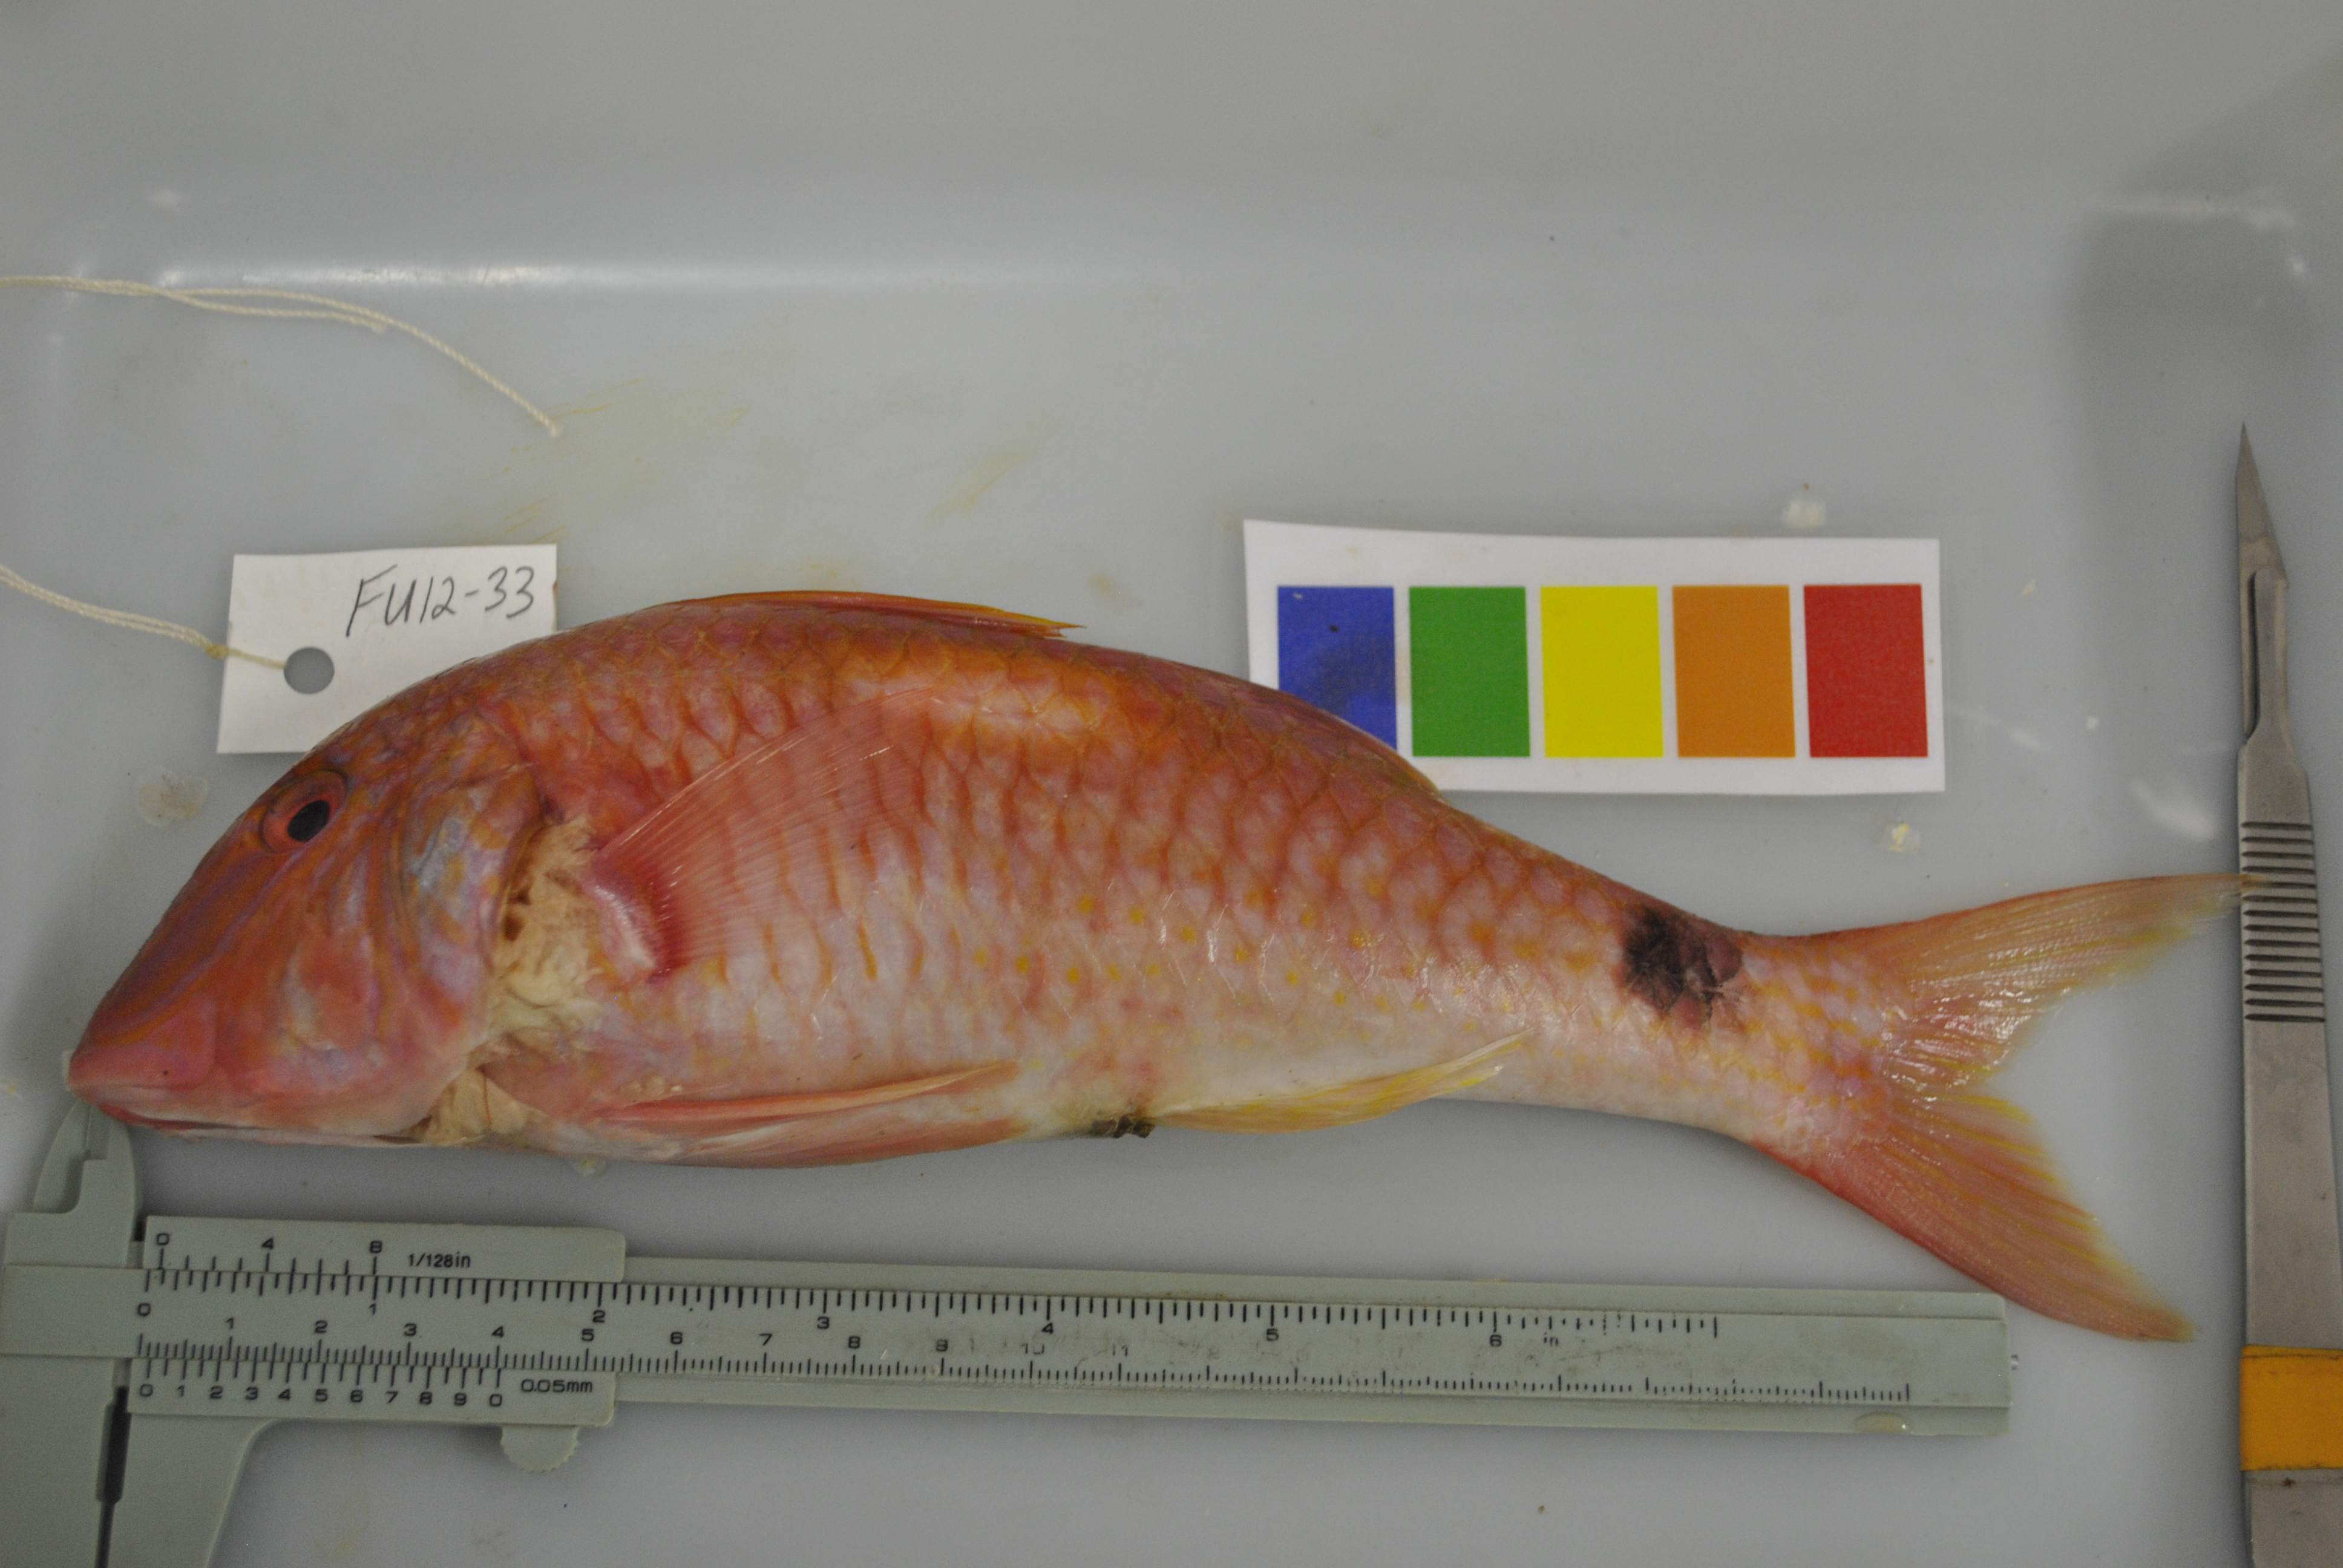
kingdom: Animalia
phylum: Chordata
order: Perciformes
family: Mullidae
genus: Parupeneus
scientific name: Parupeneus indicus
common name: Indian goatfish
